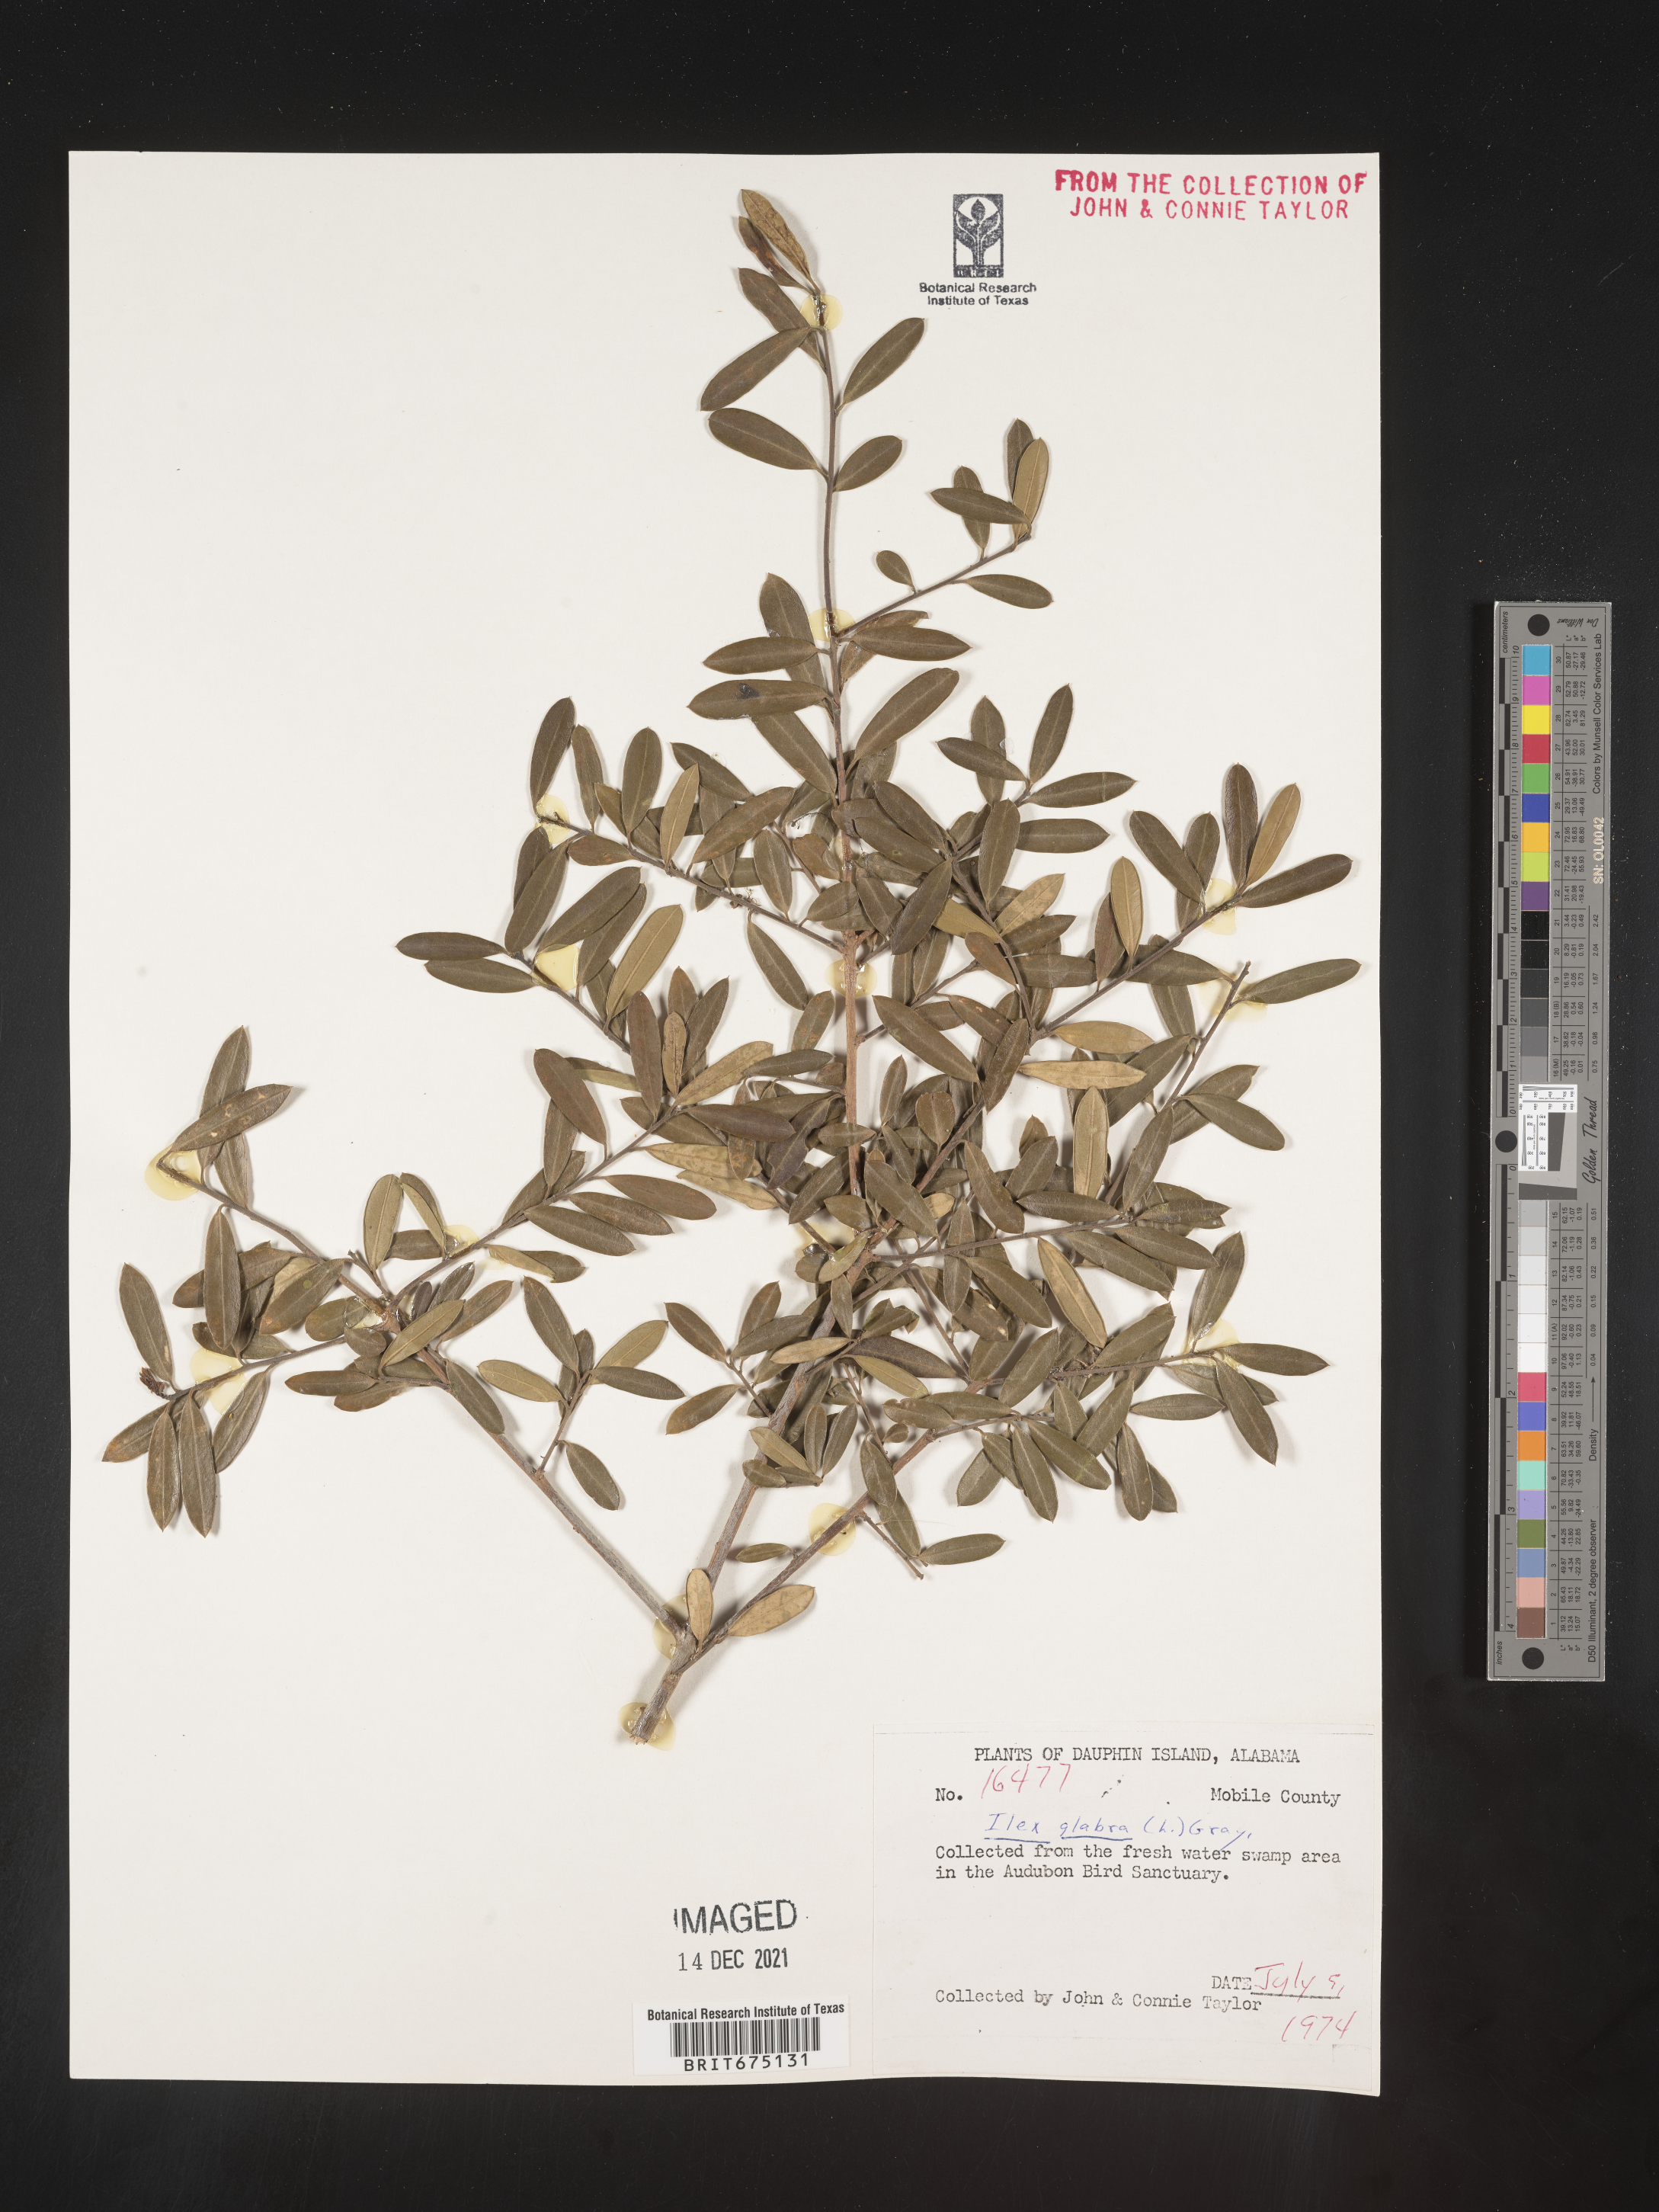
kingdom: Plantae
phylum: Tracheophyta
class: Magnoliopsida
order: Aquifoliales
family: Aquifoliaceae
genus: Ilex
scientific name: Ilex glabra
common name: Bitter gallberry
